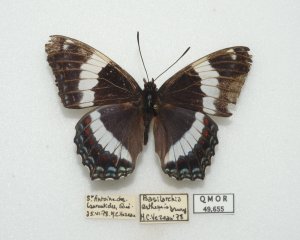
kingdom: Animalia
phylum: Arthropoda
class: Insecta
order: Lepidoptera
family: Nymphalidae
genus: Limenitis
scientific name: Limenitis arthemis
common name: Red-spotted Admiral
